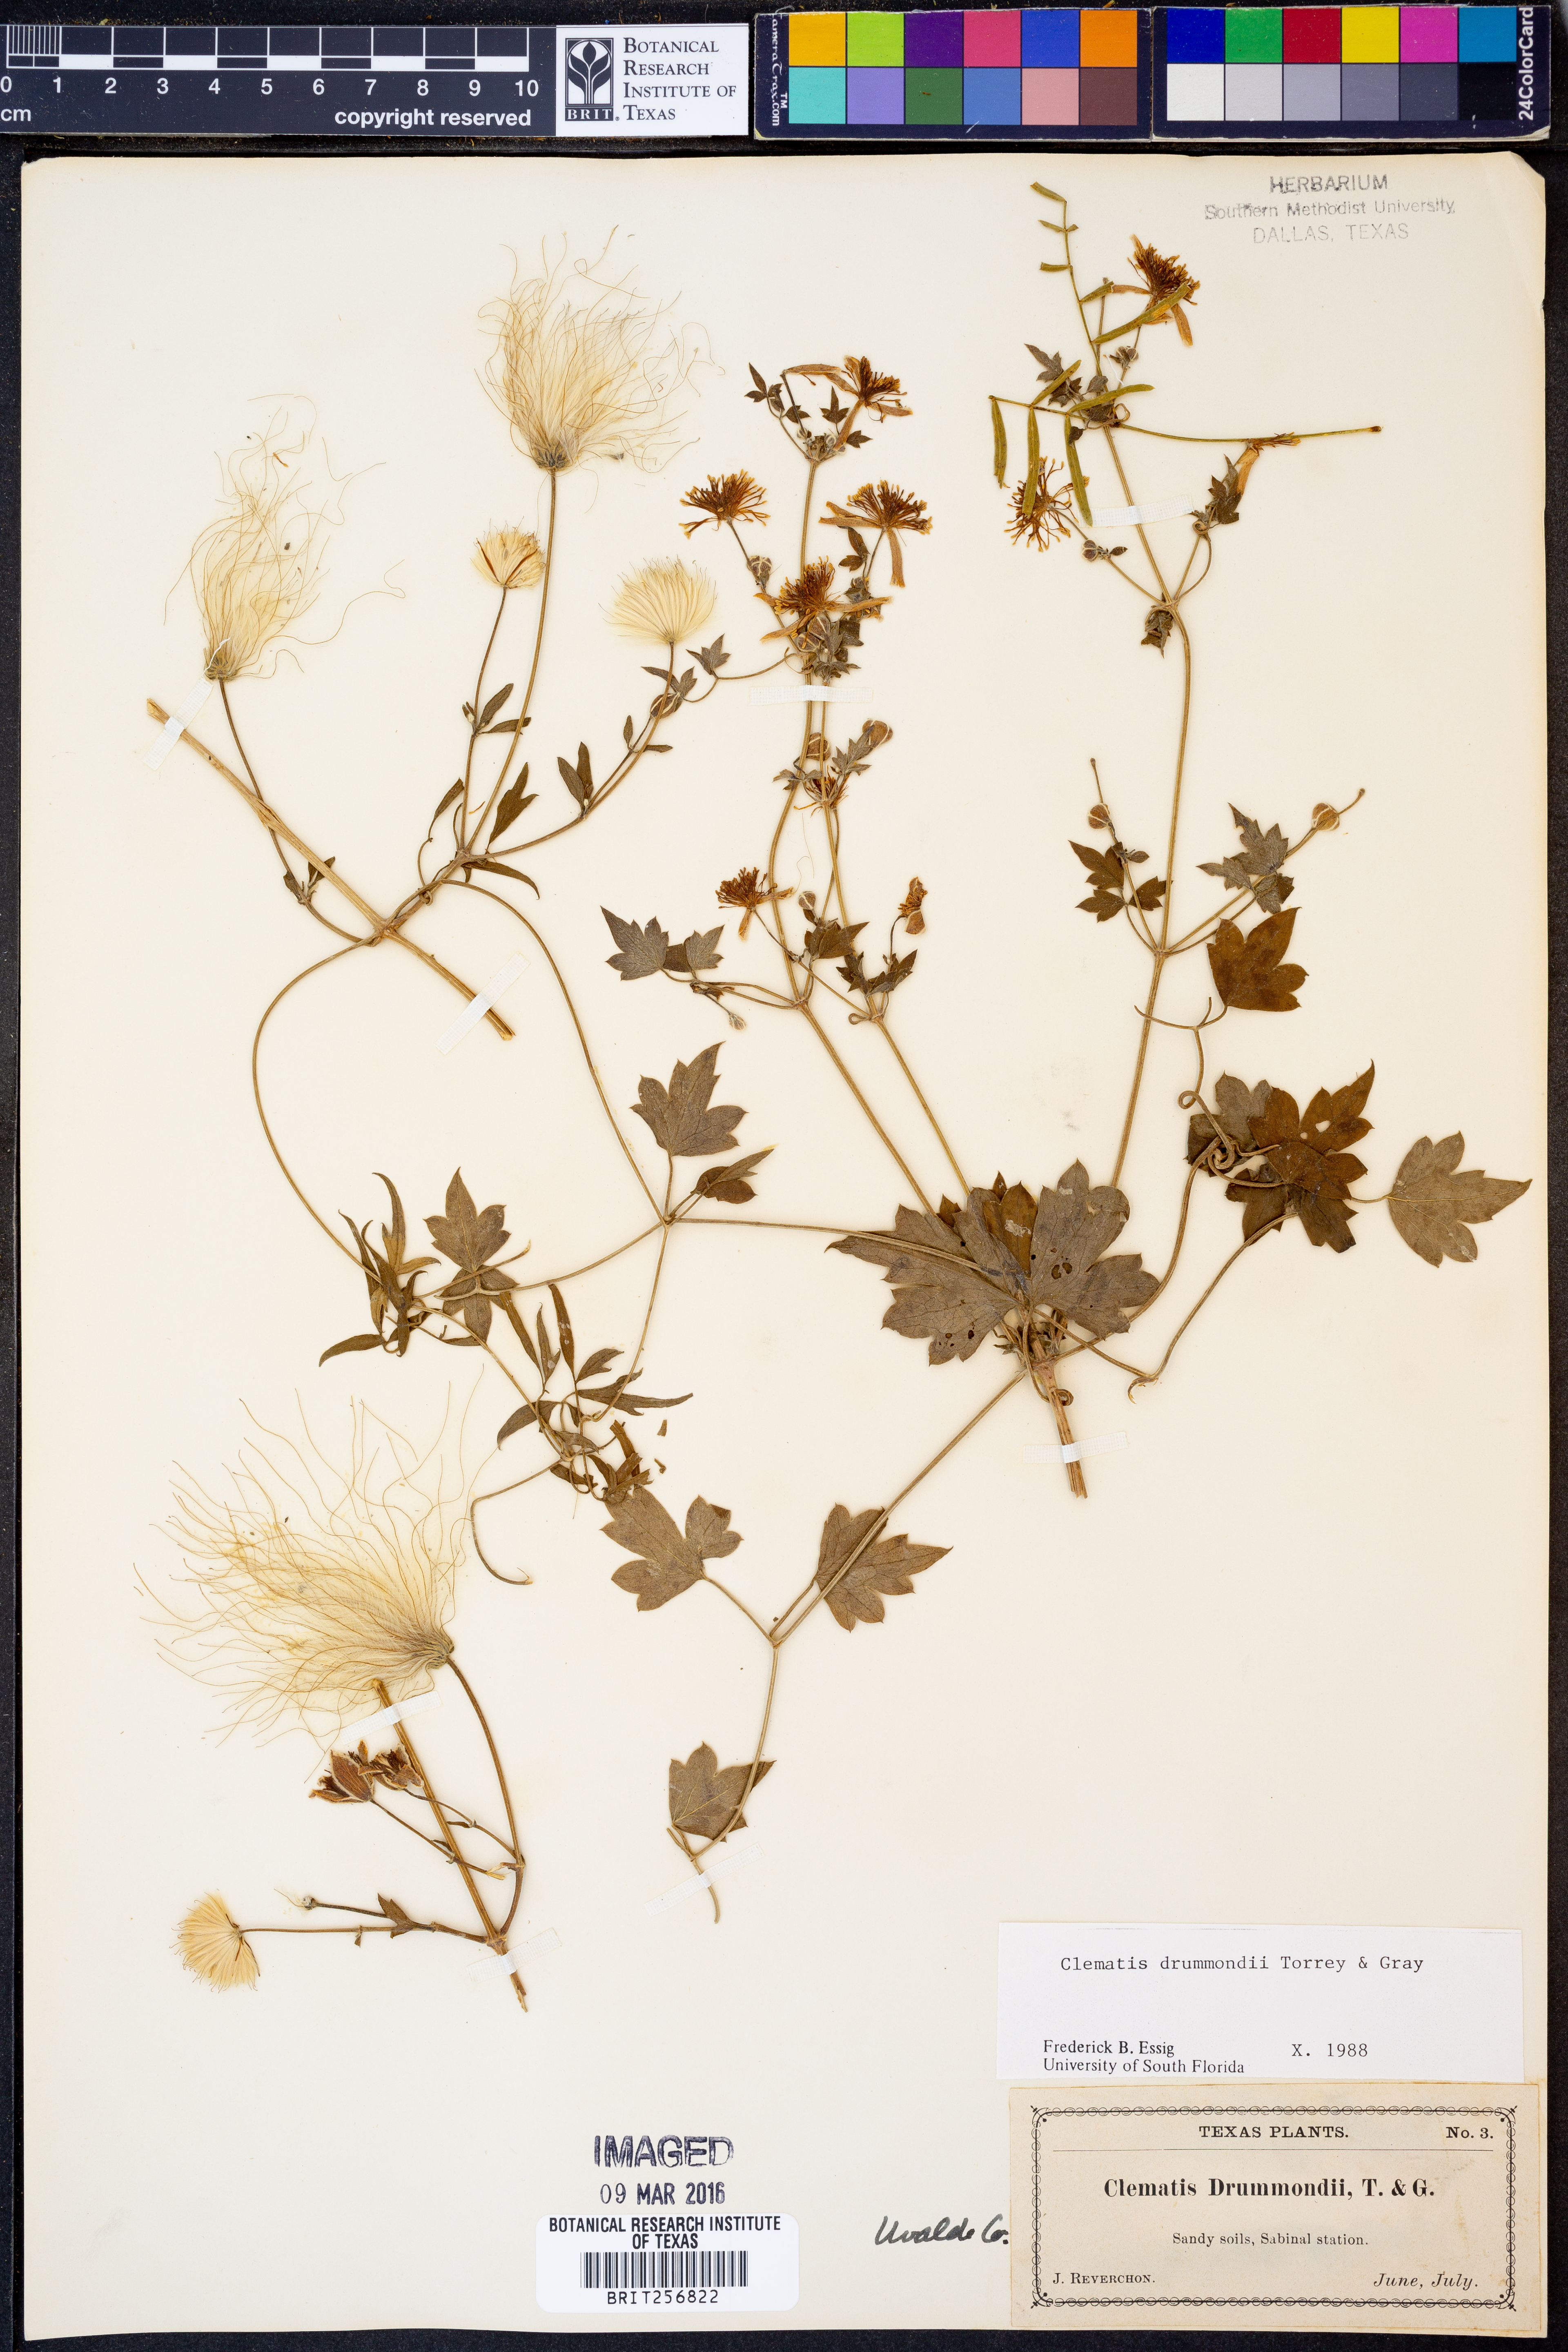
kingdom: Plantae
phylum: Tracheophyta
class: Magnoliopsida
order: Ranunculales
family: Ranunculaceae
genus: Clematis
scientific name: Clematis drummondii
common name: Texas virgin's bower
